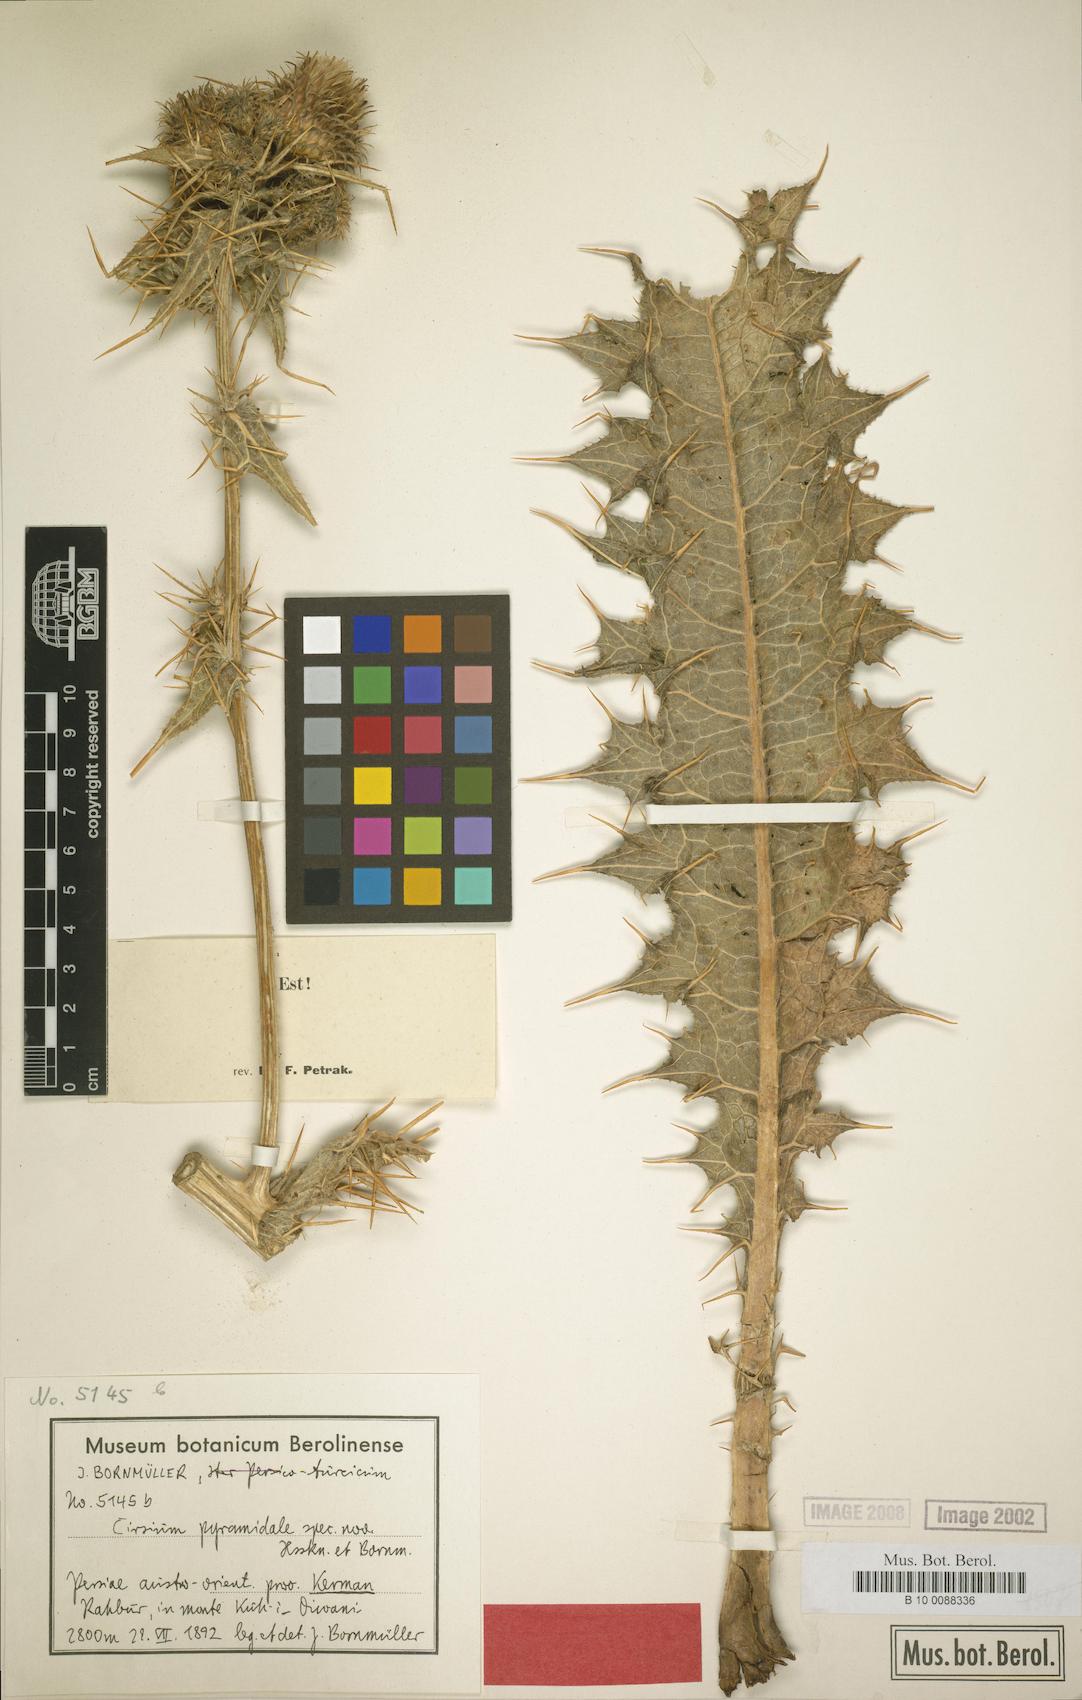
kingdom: Plantae
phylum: Tracheophyta
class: Magnoliopsida
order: Asterales
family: Asteraceae
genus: Lophiolepis
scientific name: Lophiolepis pyramidalis
